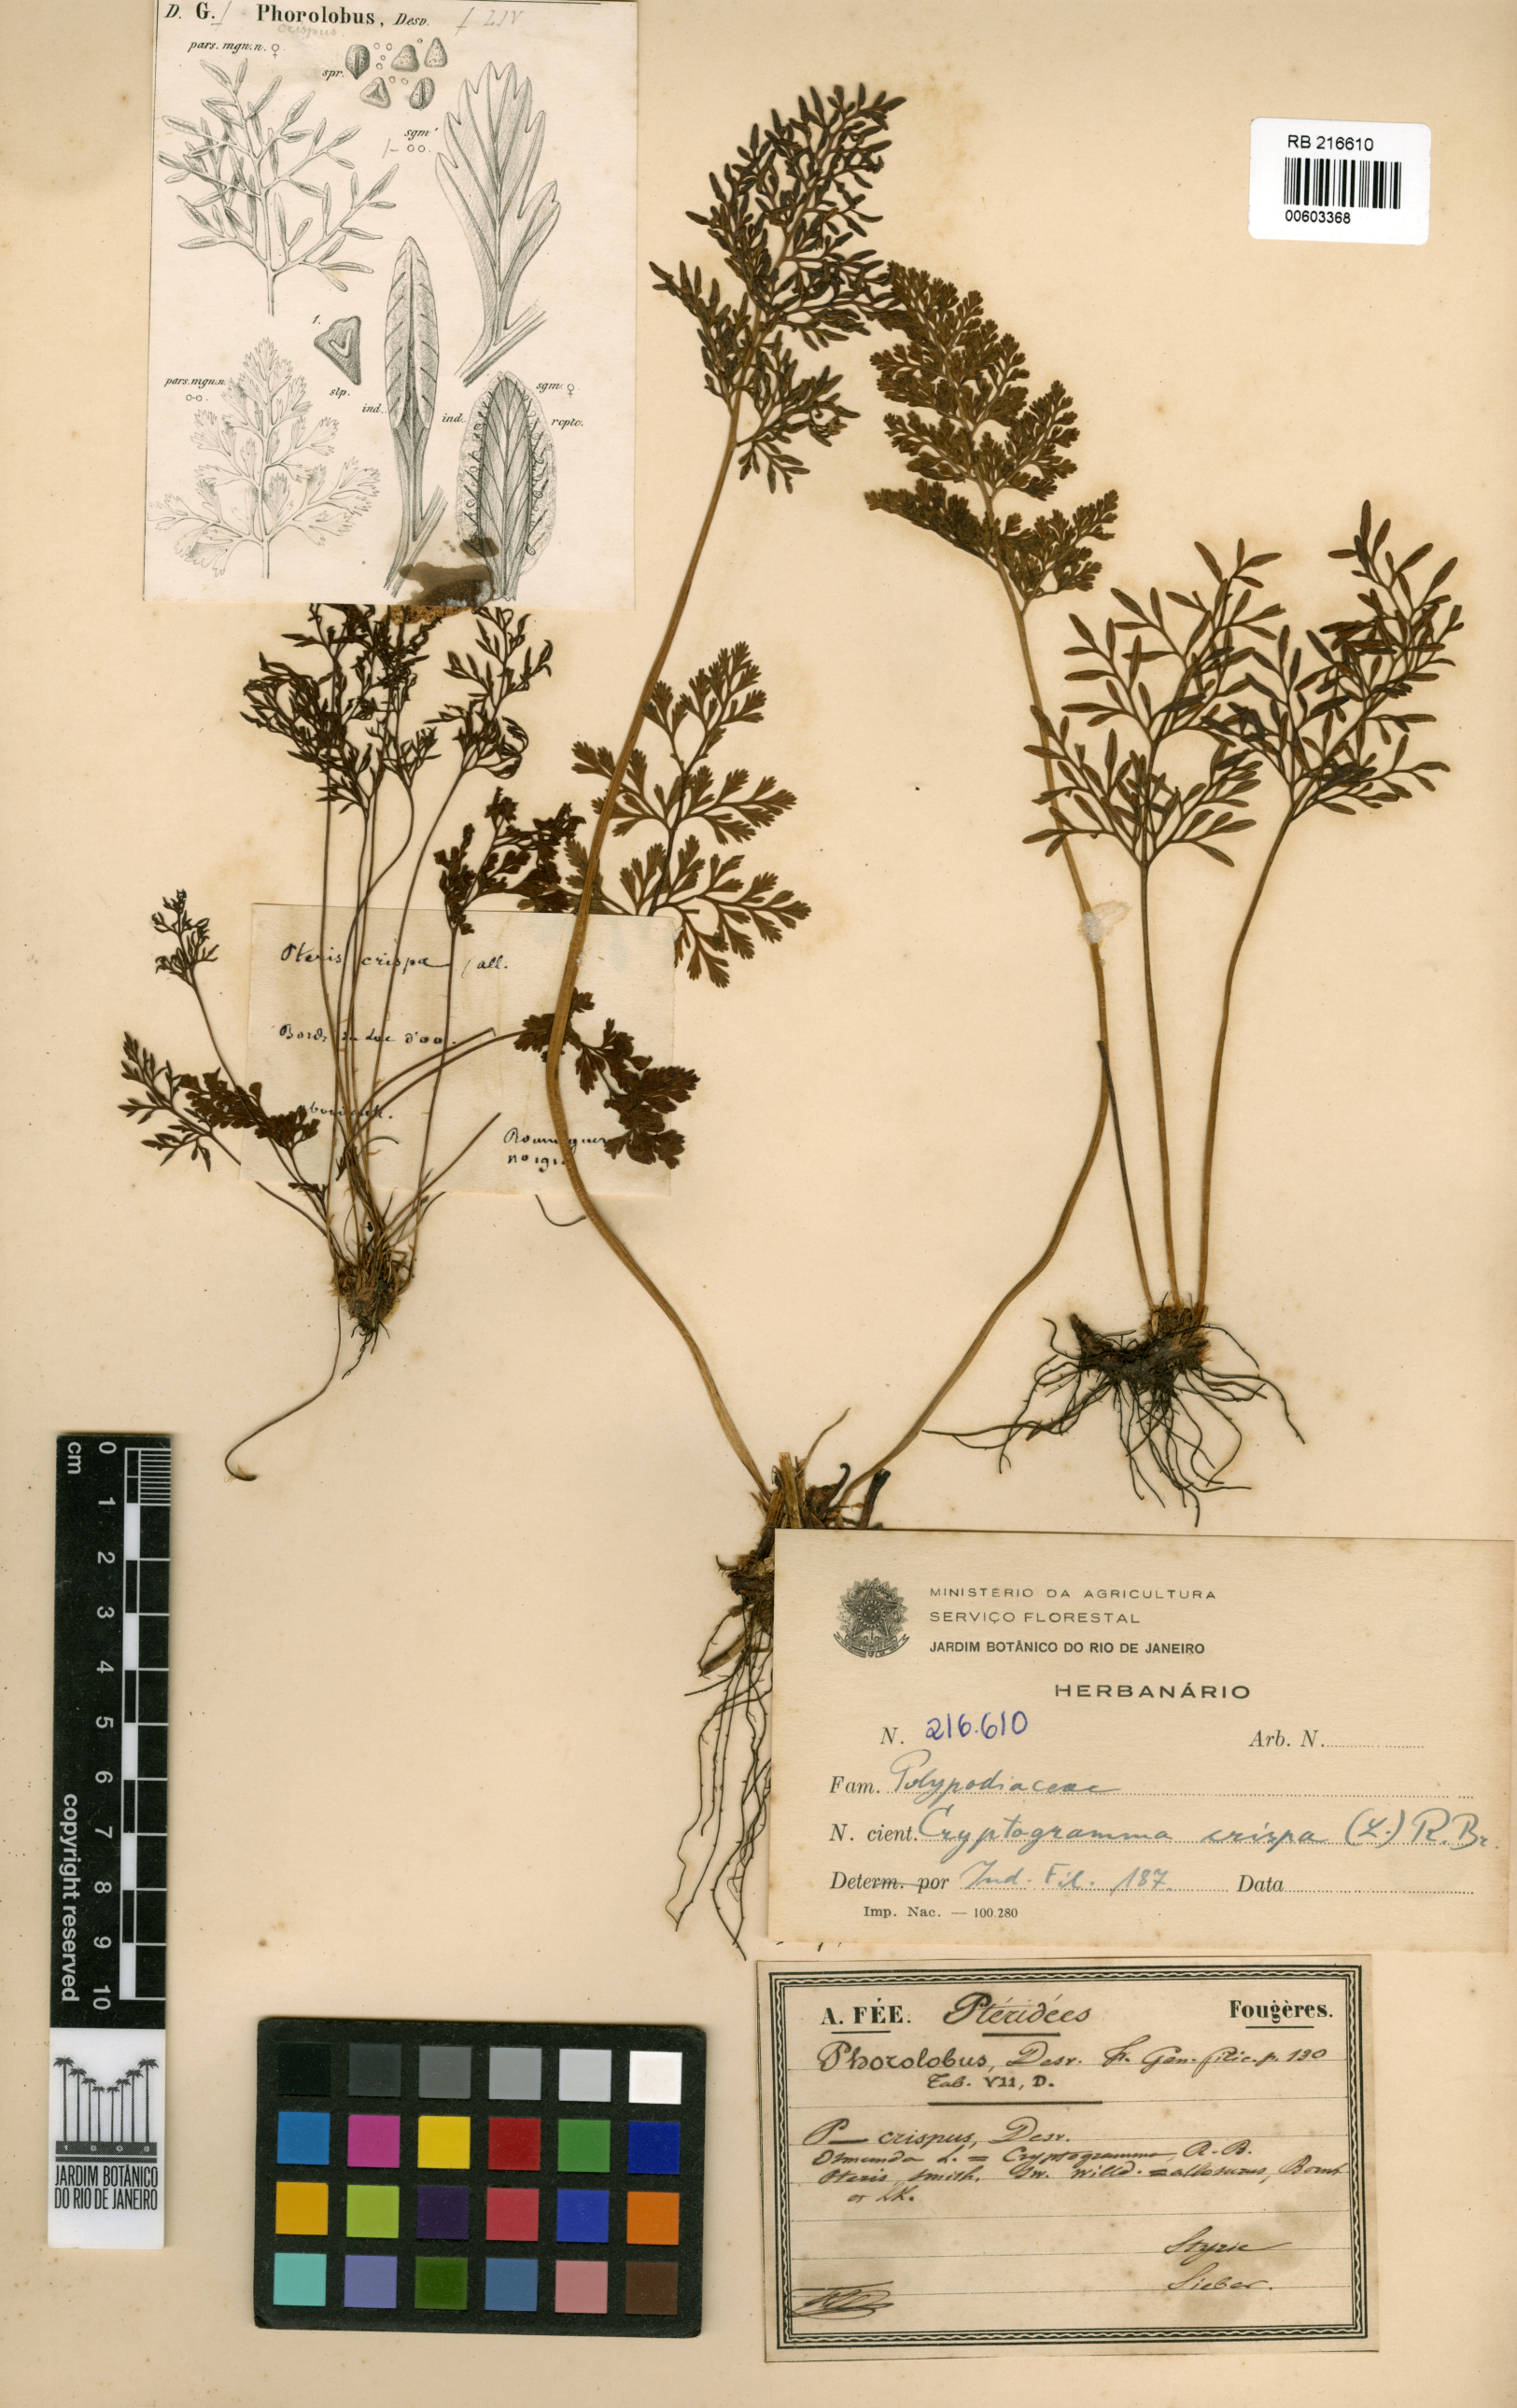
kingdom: Plantae
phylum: Tracheophyta
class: Polypodiopsida
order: Polypodiales
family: Pteridaceae
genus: Cryptogramma
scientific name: Cryptogramma crispa
